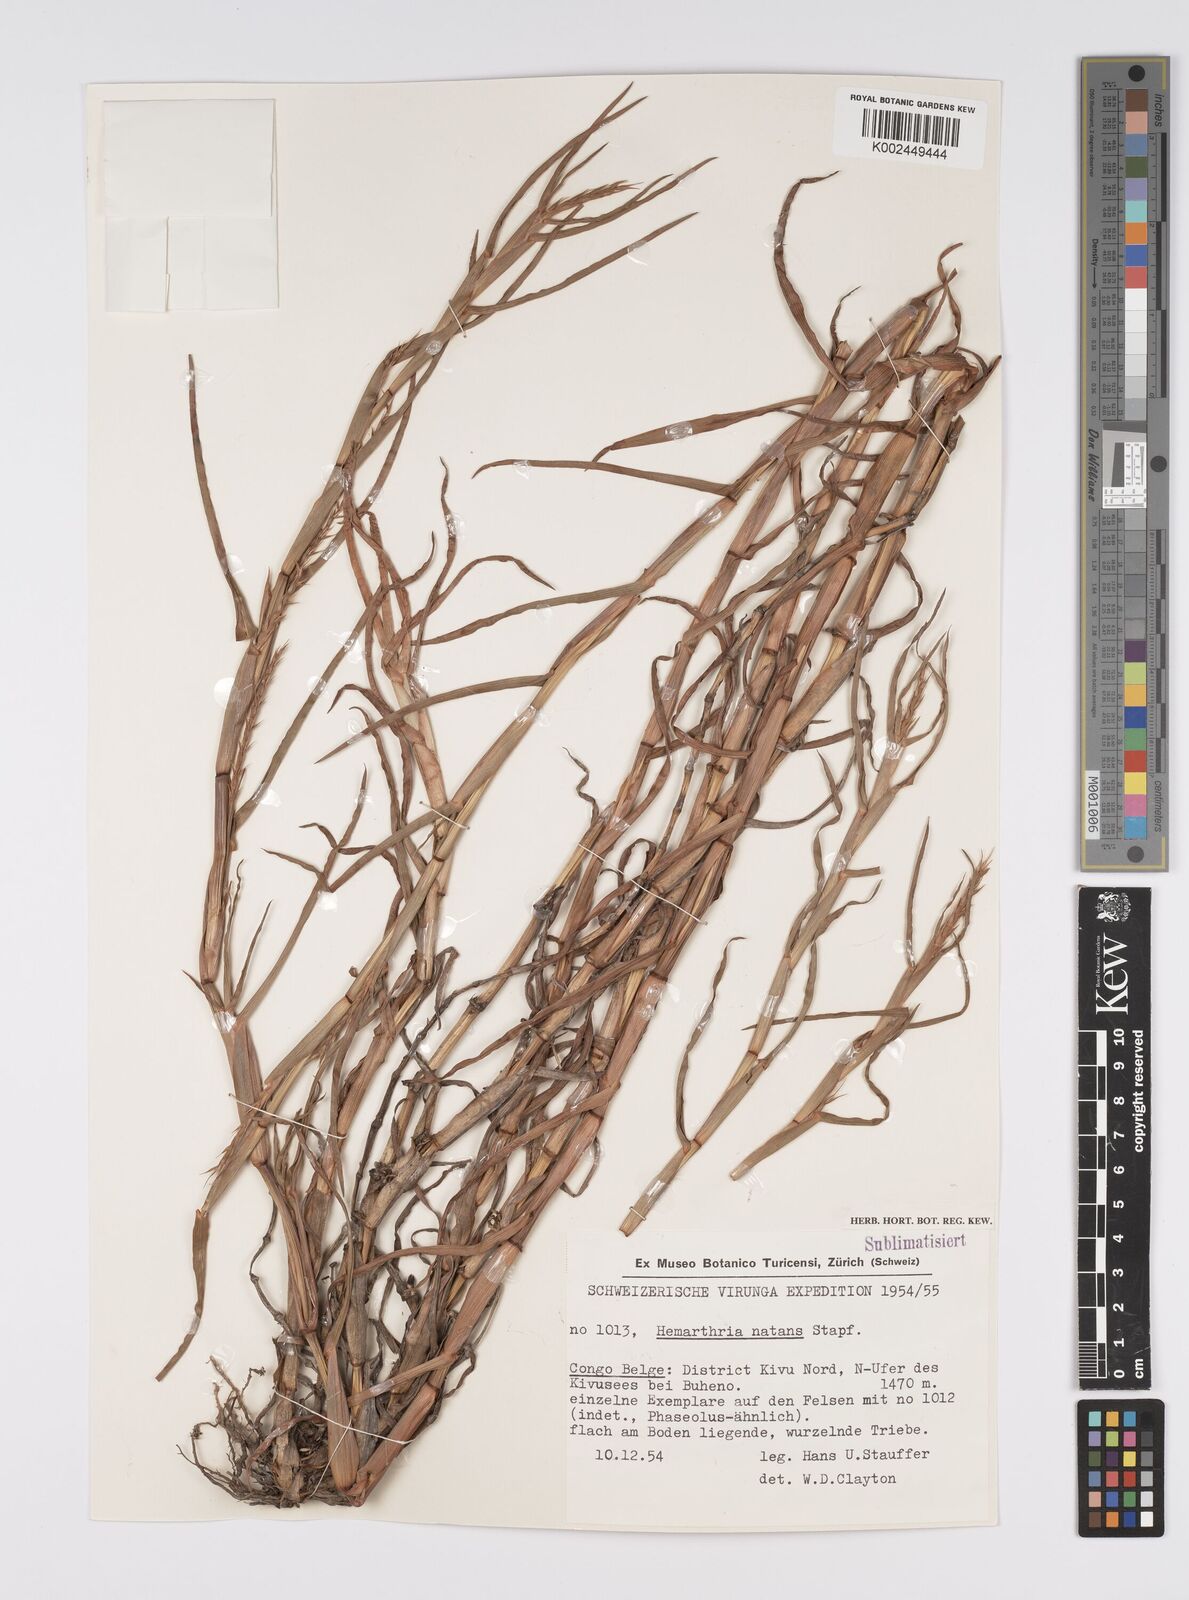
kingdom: Plantae
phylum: Tracheophyta
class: Liliopsida
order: Poales
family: Poaceae
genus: Hemarthria
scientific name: Hemarthria natans
